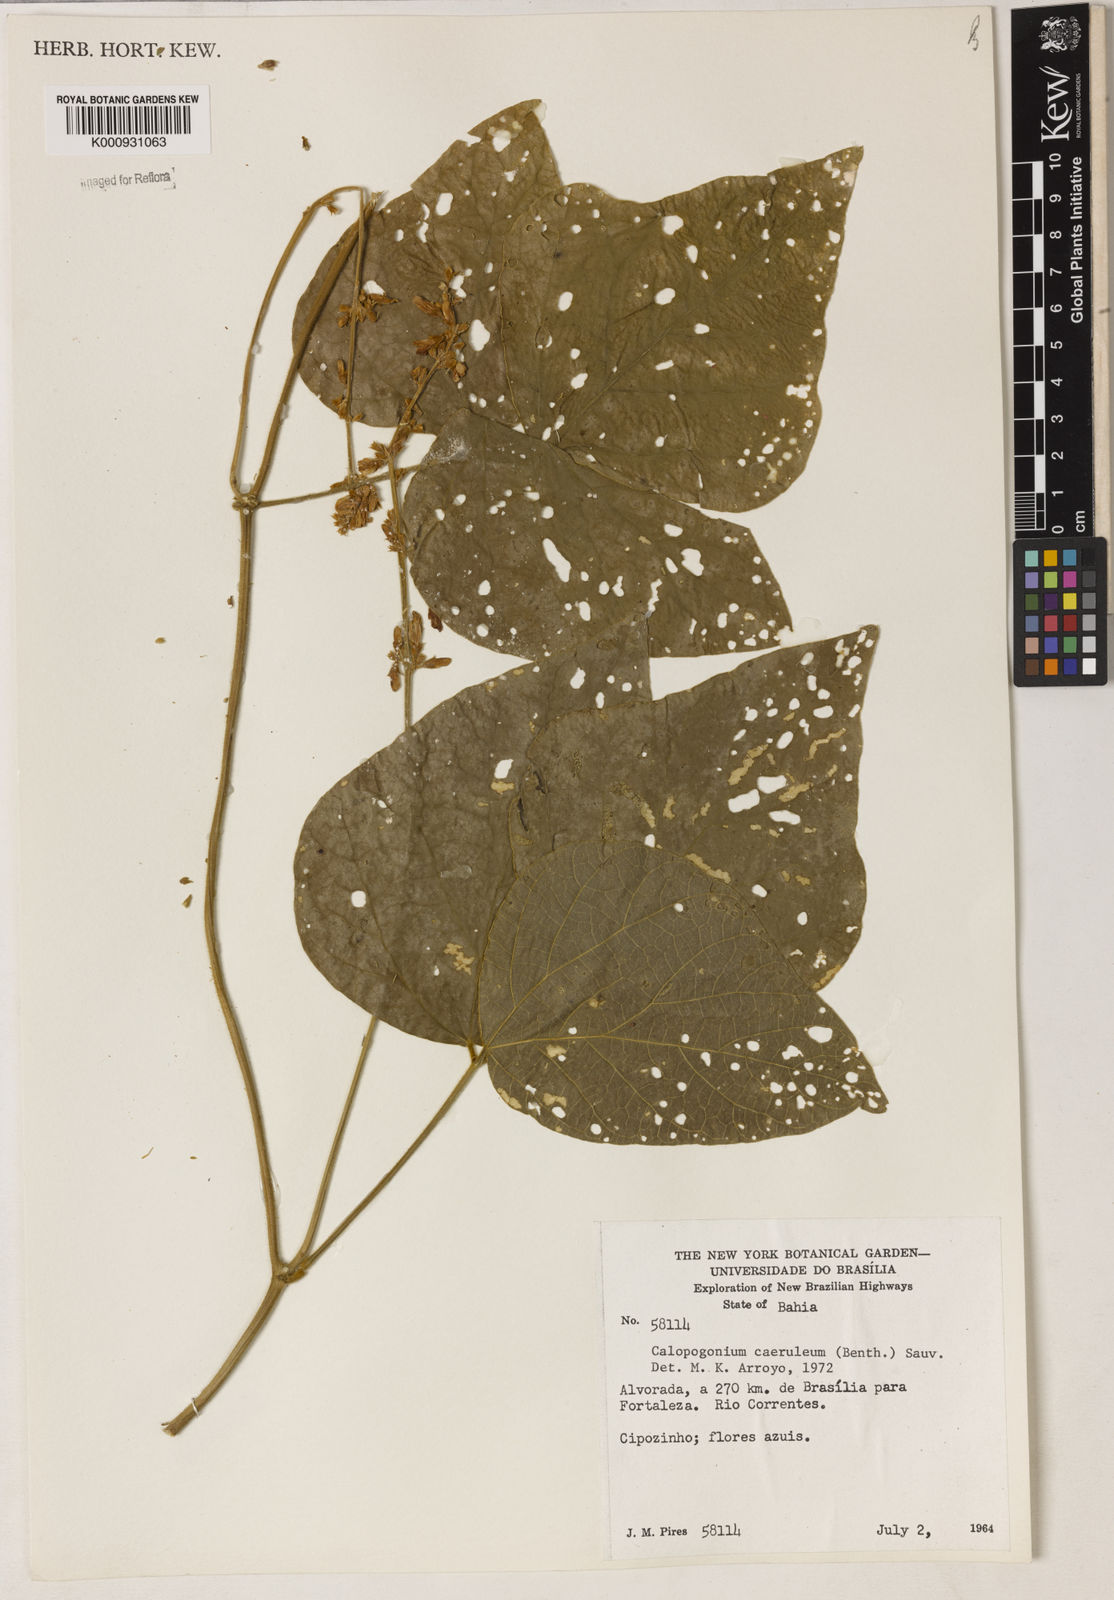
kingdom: Plantae
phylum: Tracheophyta
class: Magnoliopsida
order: Fabales
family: Fabaceae
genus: Calopogonium
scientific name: Calopogonium caeruleum
